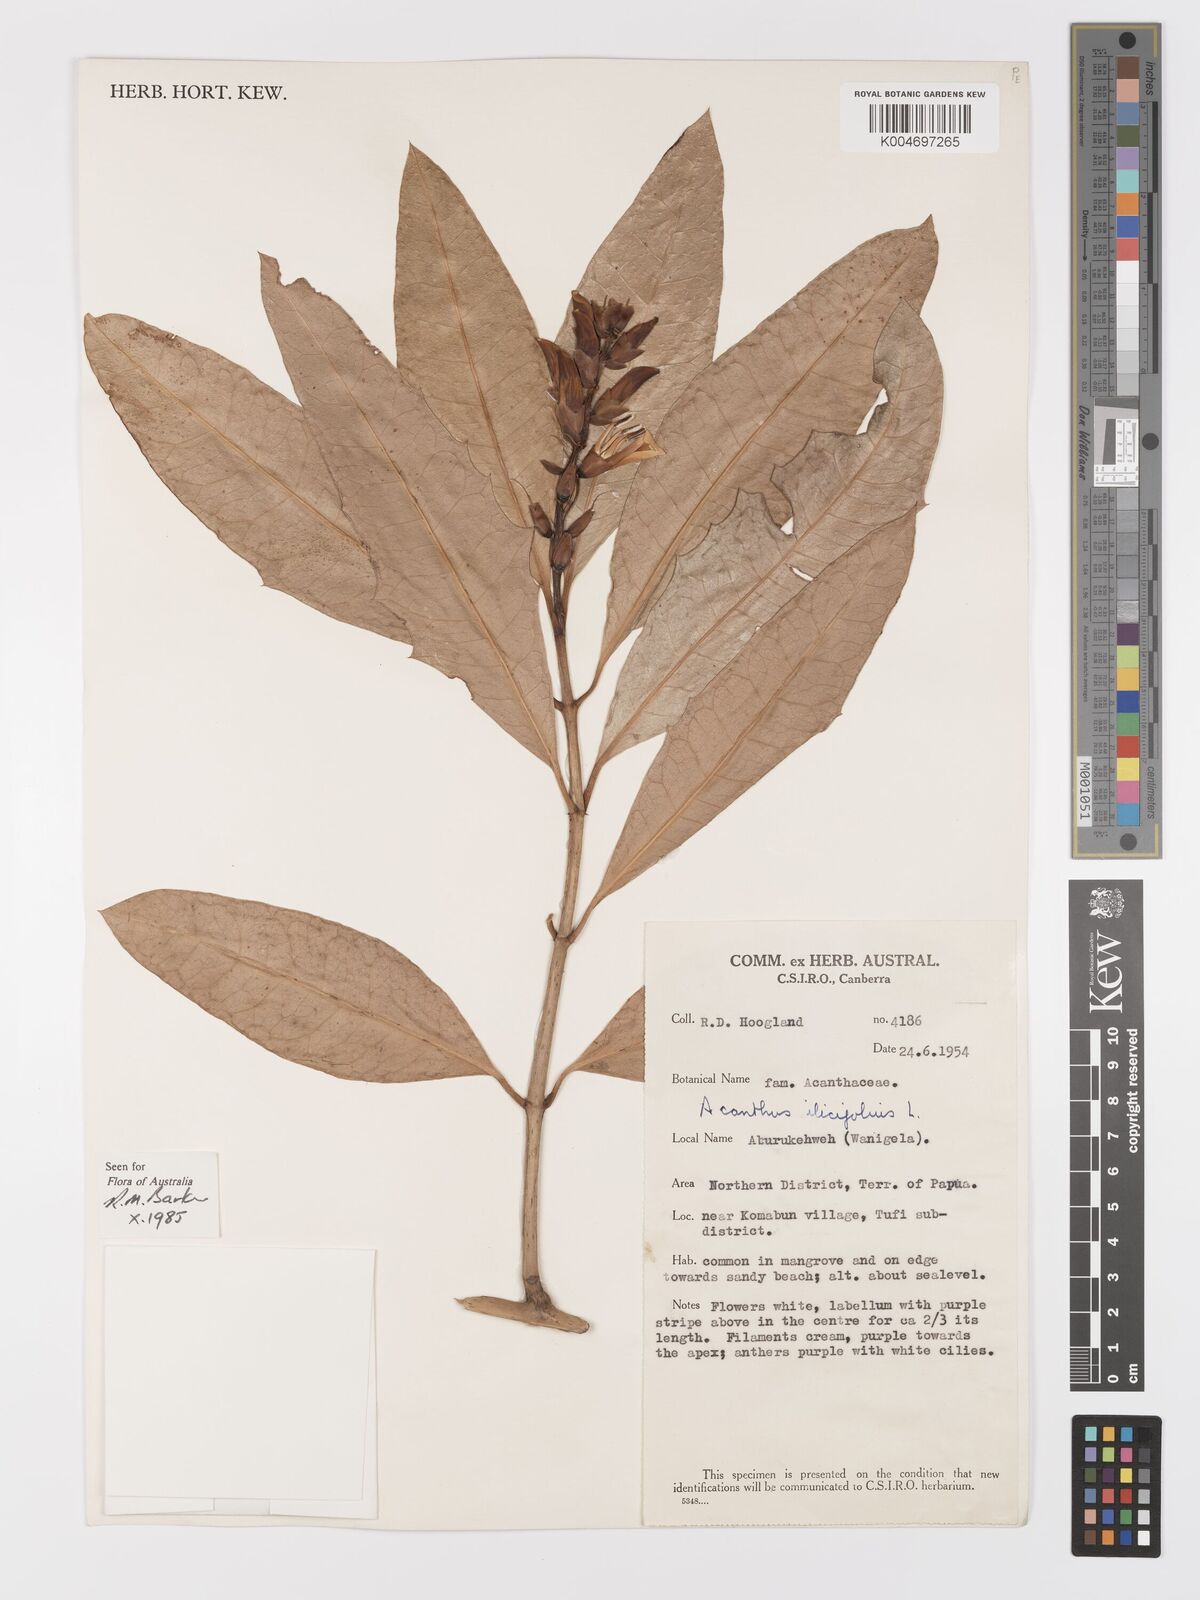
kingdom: Plantae
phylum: Tracheophyta
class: Magnoliopsida
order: Lamiales
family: Acanthaceae
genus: Acanthus
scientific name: Acanthus ebracteatus
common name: Acanthus
